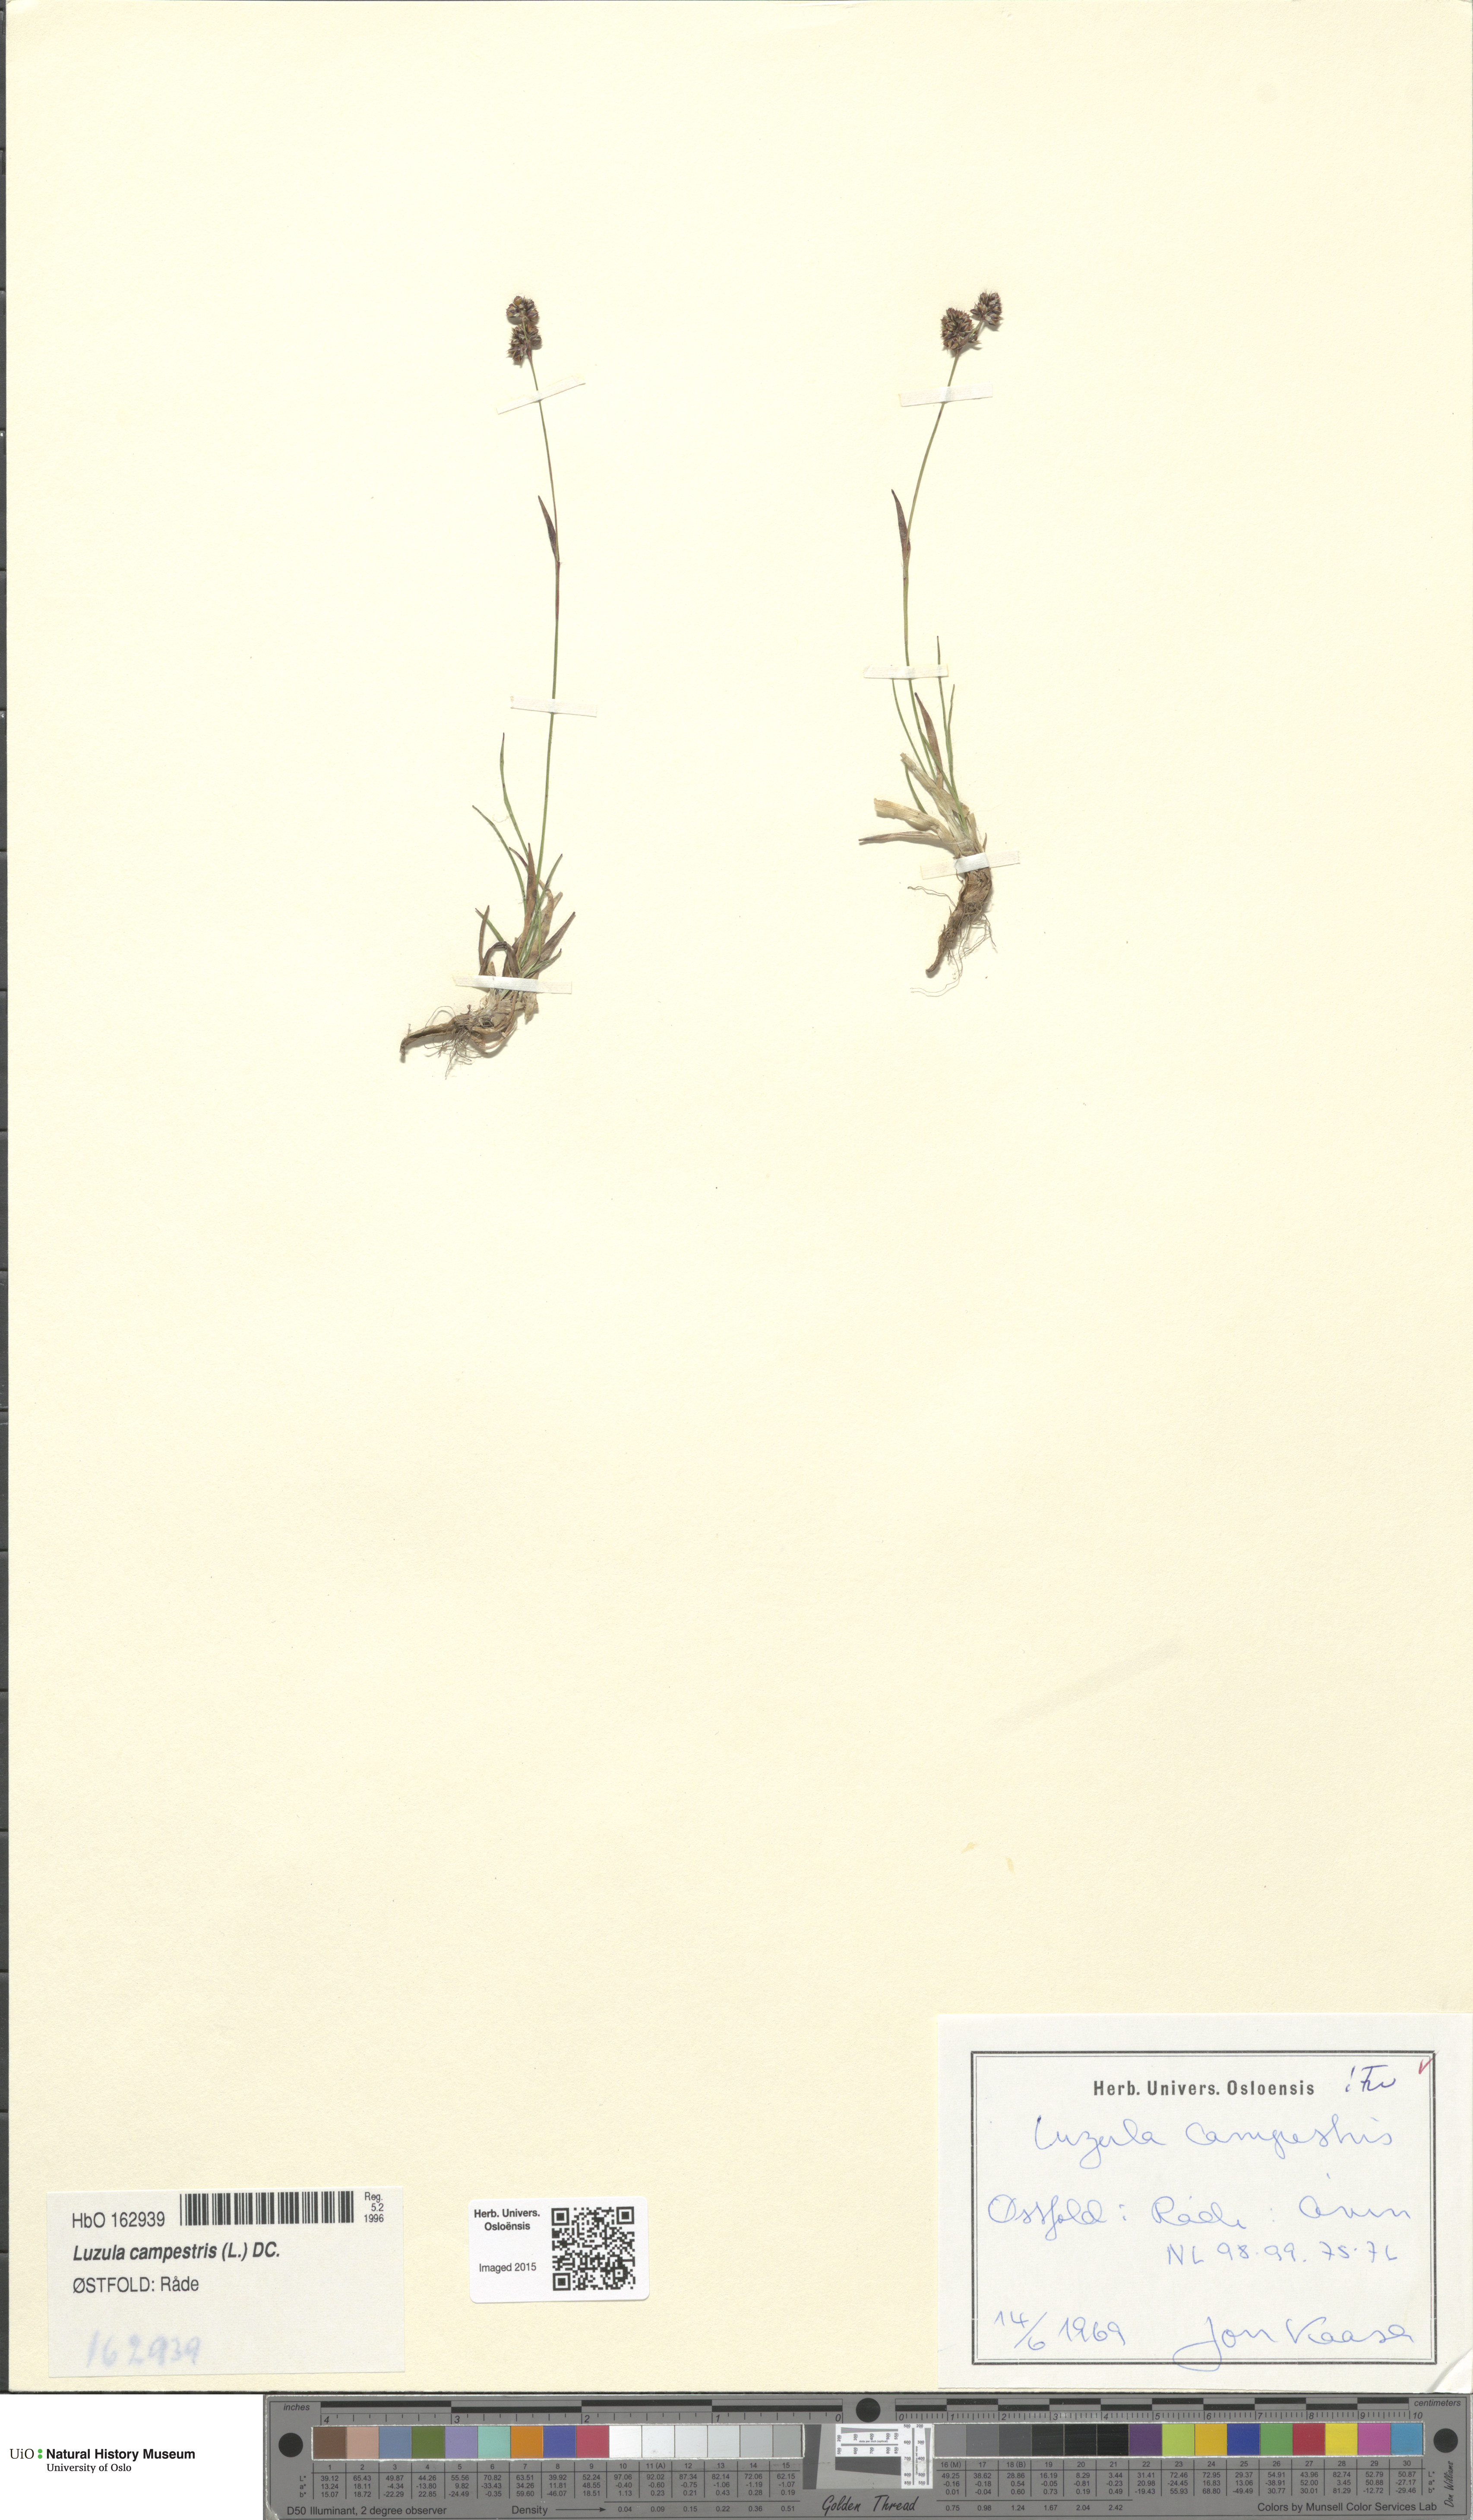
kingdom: Plantae
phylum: Tracheophyta
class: Liliopsida
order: Poales
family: Juncaceae
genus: Luzula
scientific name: Luzula campestris
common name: Field wood-rush
